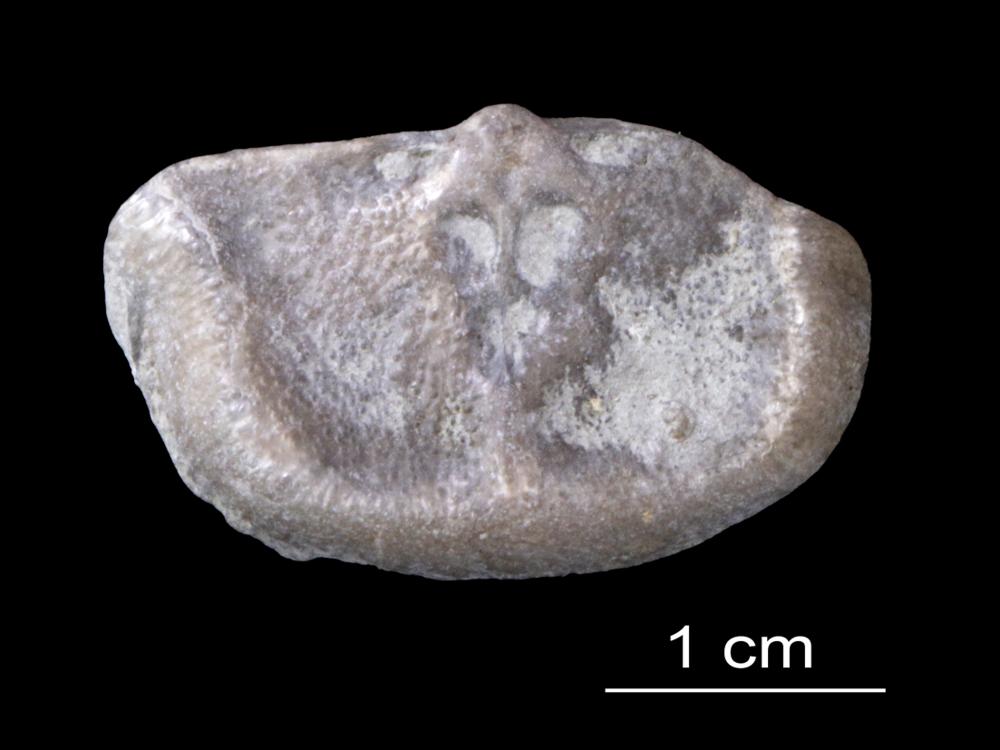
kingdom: Animalia
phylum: Brachiopoda
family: Strophomenidae
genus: Leptaena
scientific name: Leptaena Strophomena rhomboidalis
